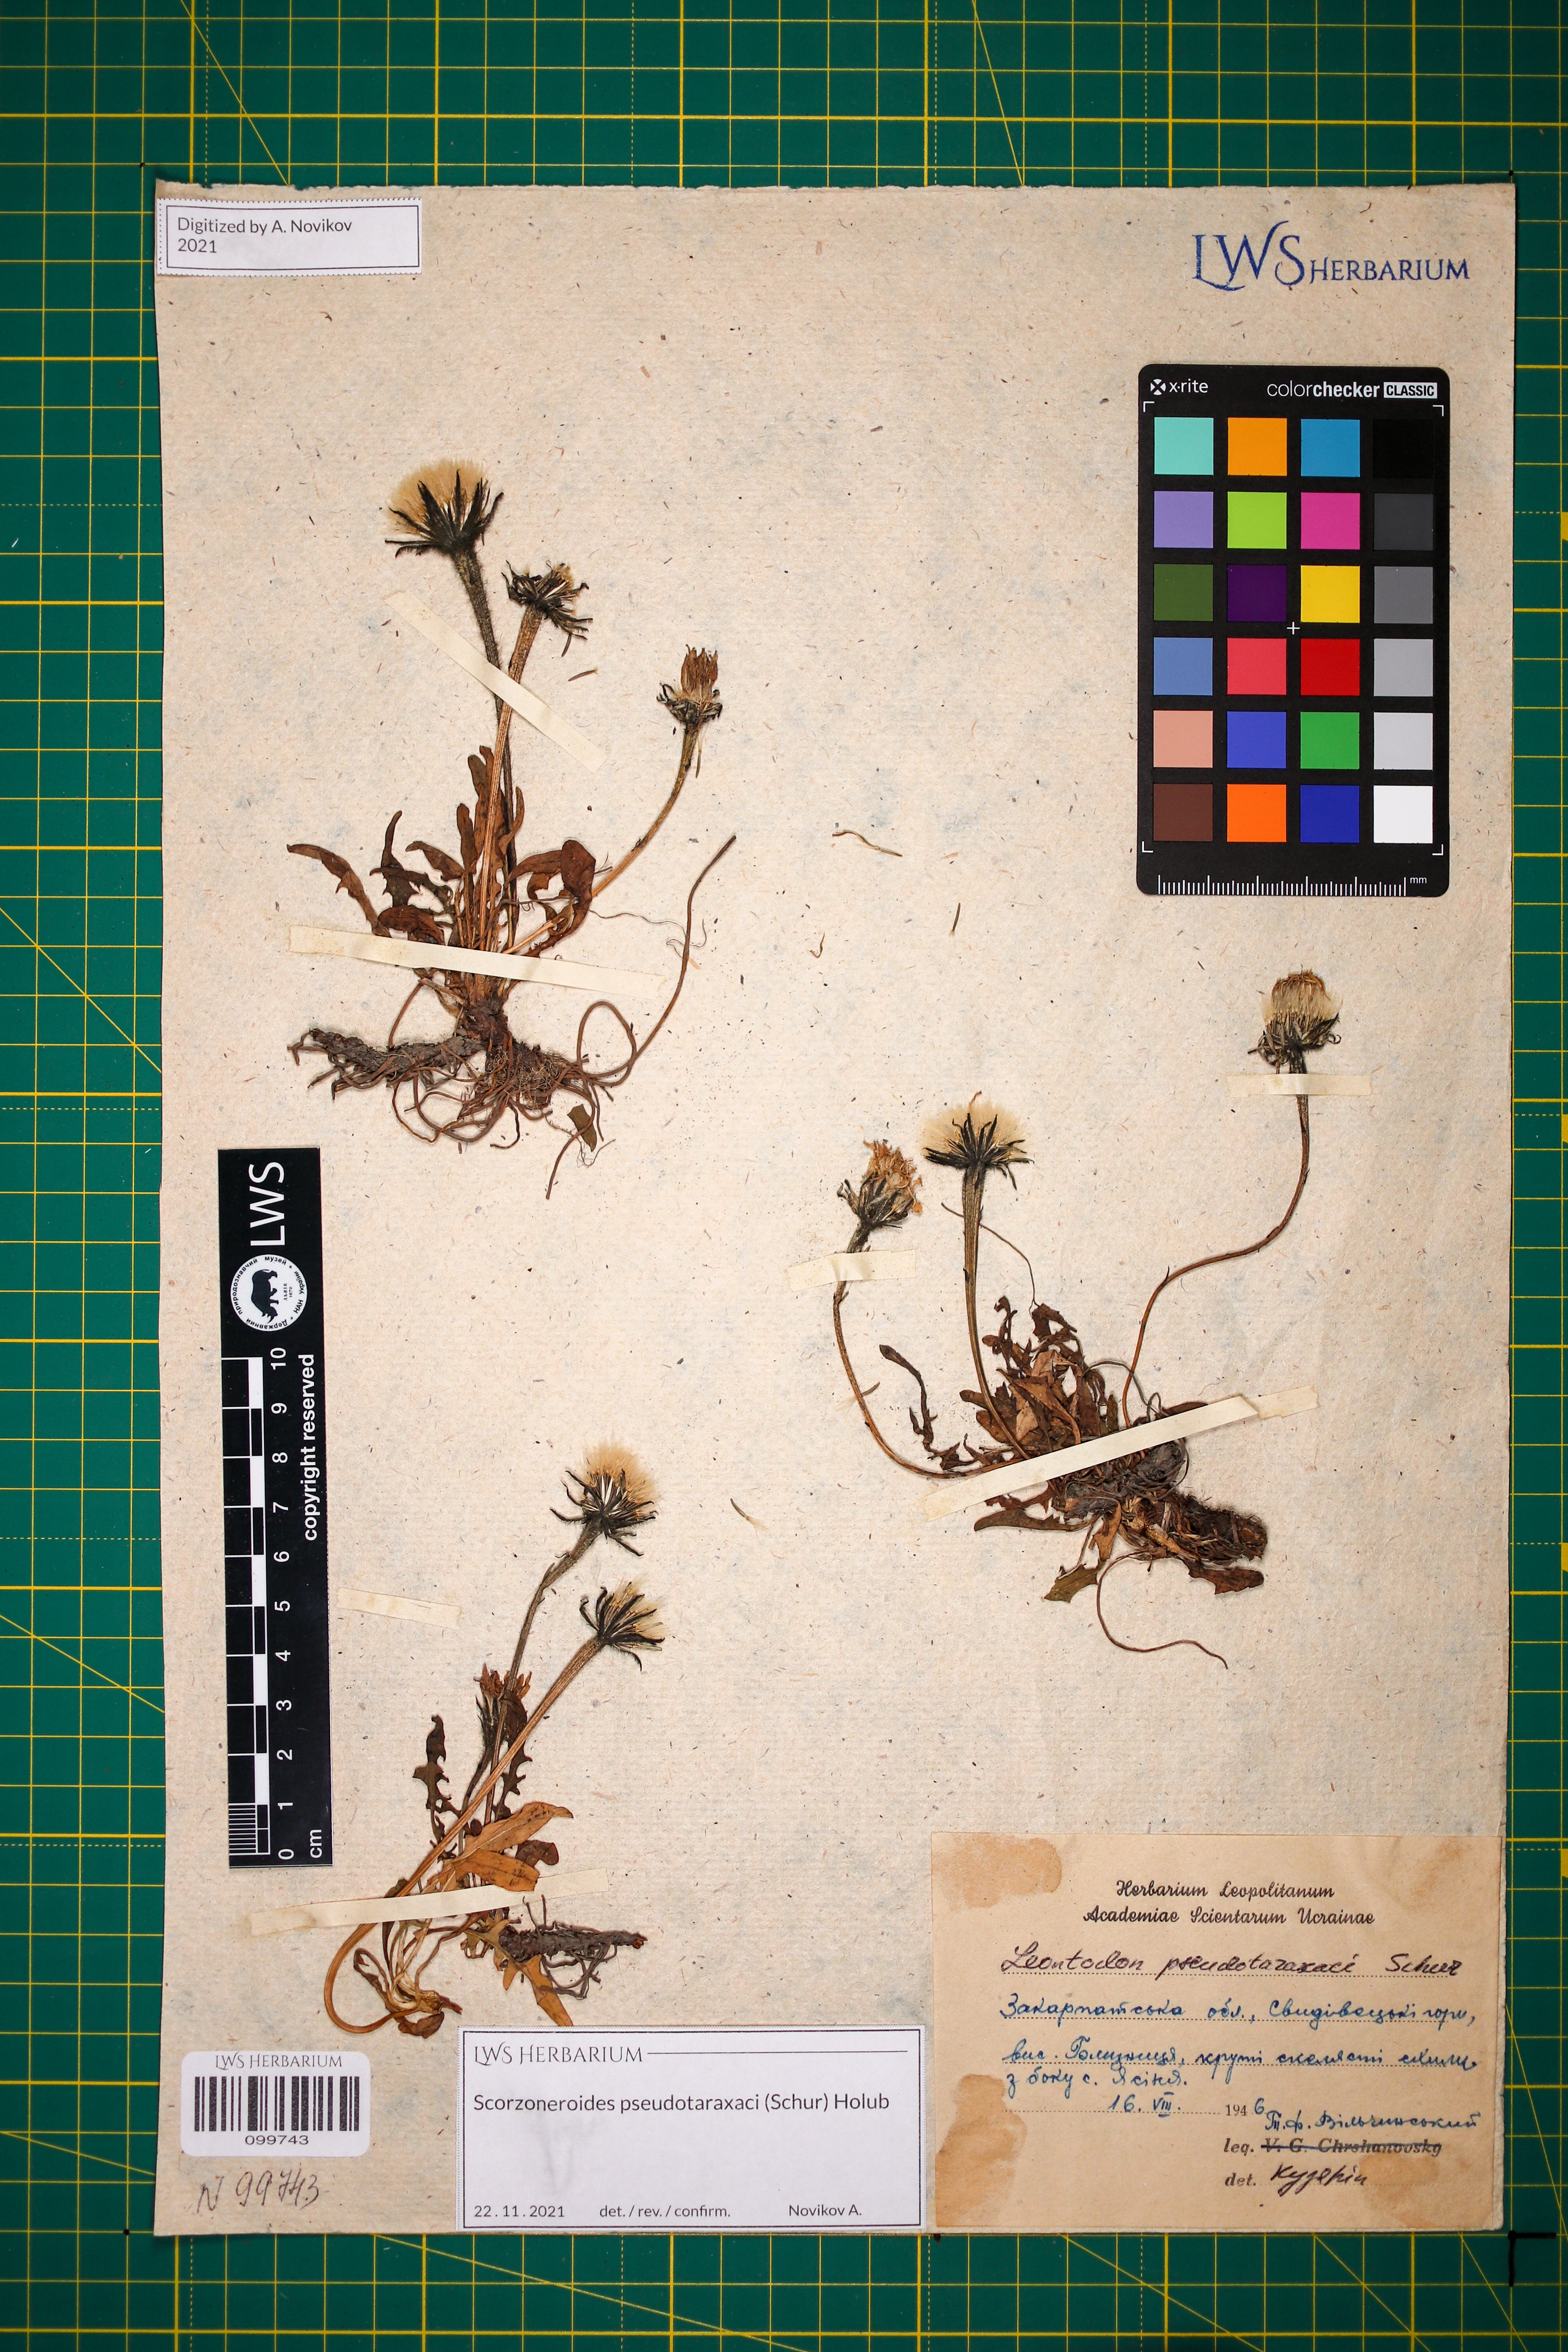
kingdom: Plantae
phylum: Tracheophyta
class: Magnoliopsida
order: Asterales
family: Asteraceae
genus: Scorzoneroides
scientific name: Scorzoneroides pseudotaraxaci
